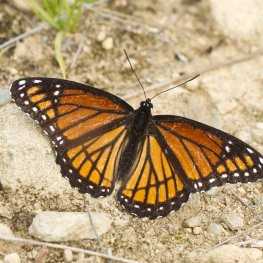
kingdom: Animalia
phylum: Arthropoda
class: Insecta
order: Lepidoptera
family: Nymphalidae
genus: Limenitis
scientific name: Limenitis archippus
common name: Viceroy
